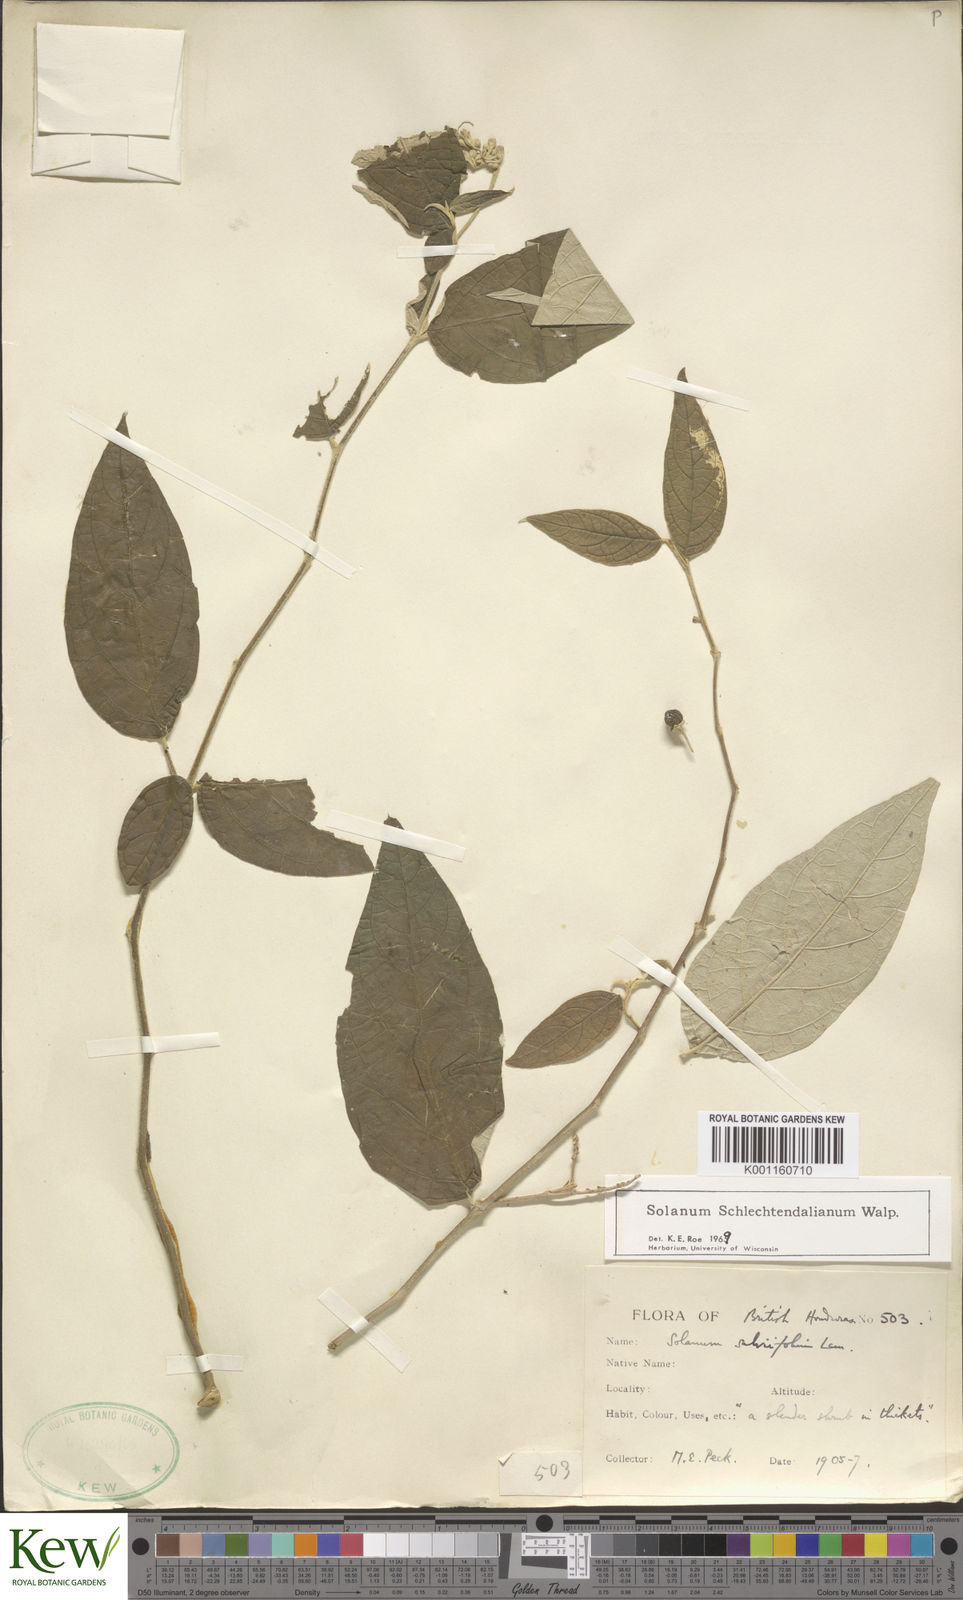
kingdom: Plantae
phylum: Tracheophyta
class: Magnoliopsida
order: Solanales
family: Solanaceae
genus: Solanum
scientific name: Solanum
